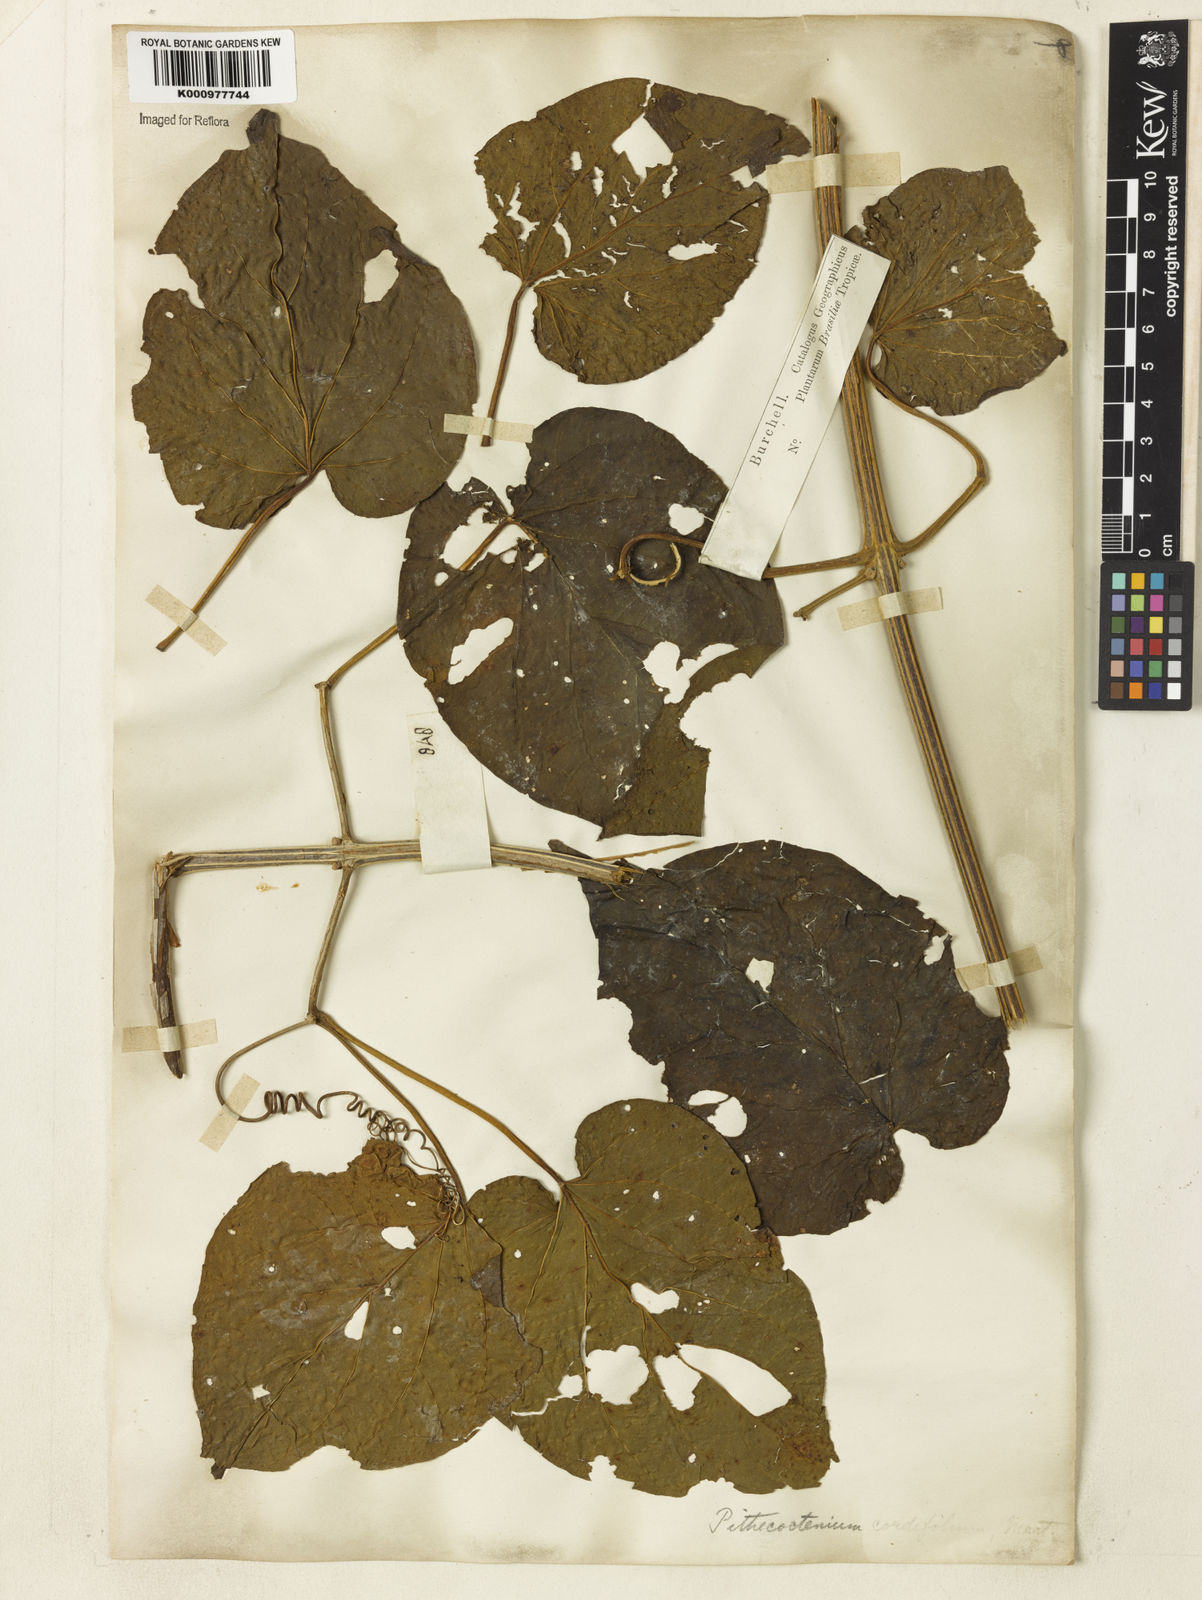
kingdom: Plantae
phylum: Tracheophyta
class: Magnoliopsida
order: Lamiales
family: Bignoniaceae
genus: Amphilophium
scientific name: Amphilophium crucigerum
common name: Monkey comb
